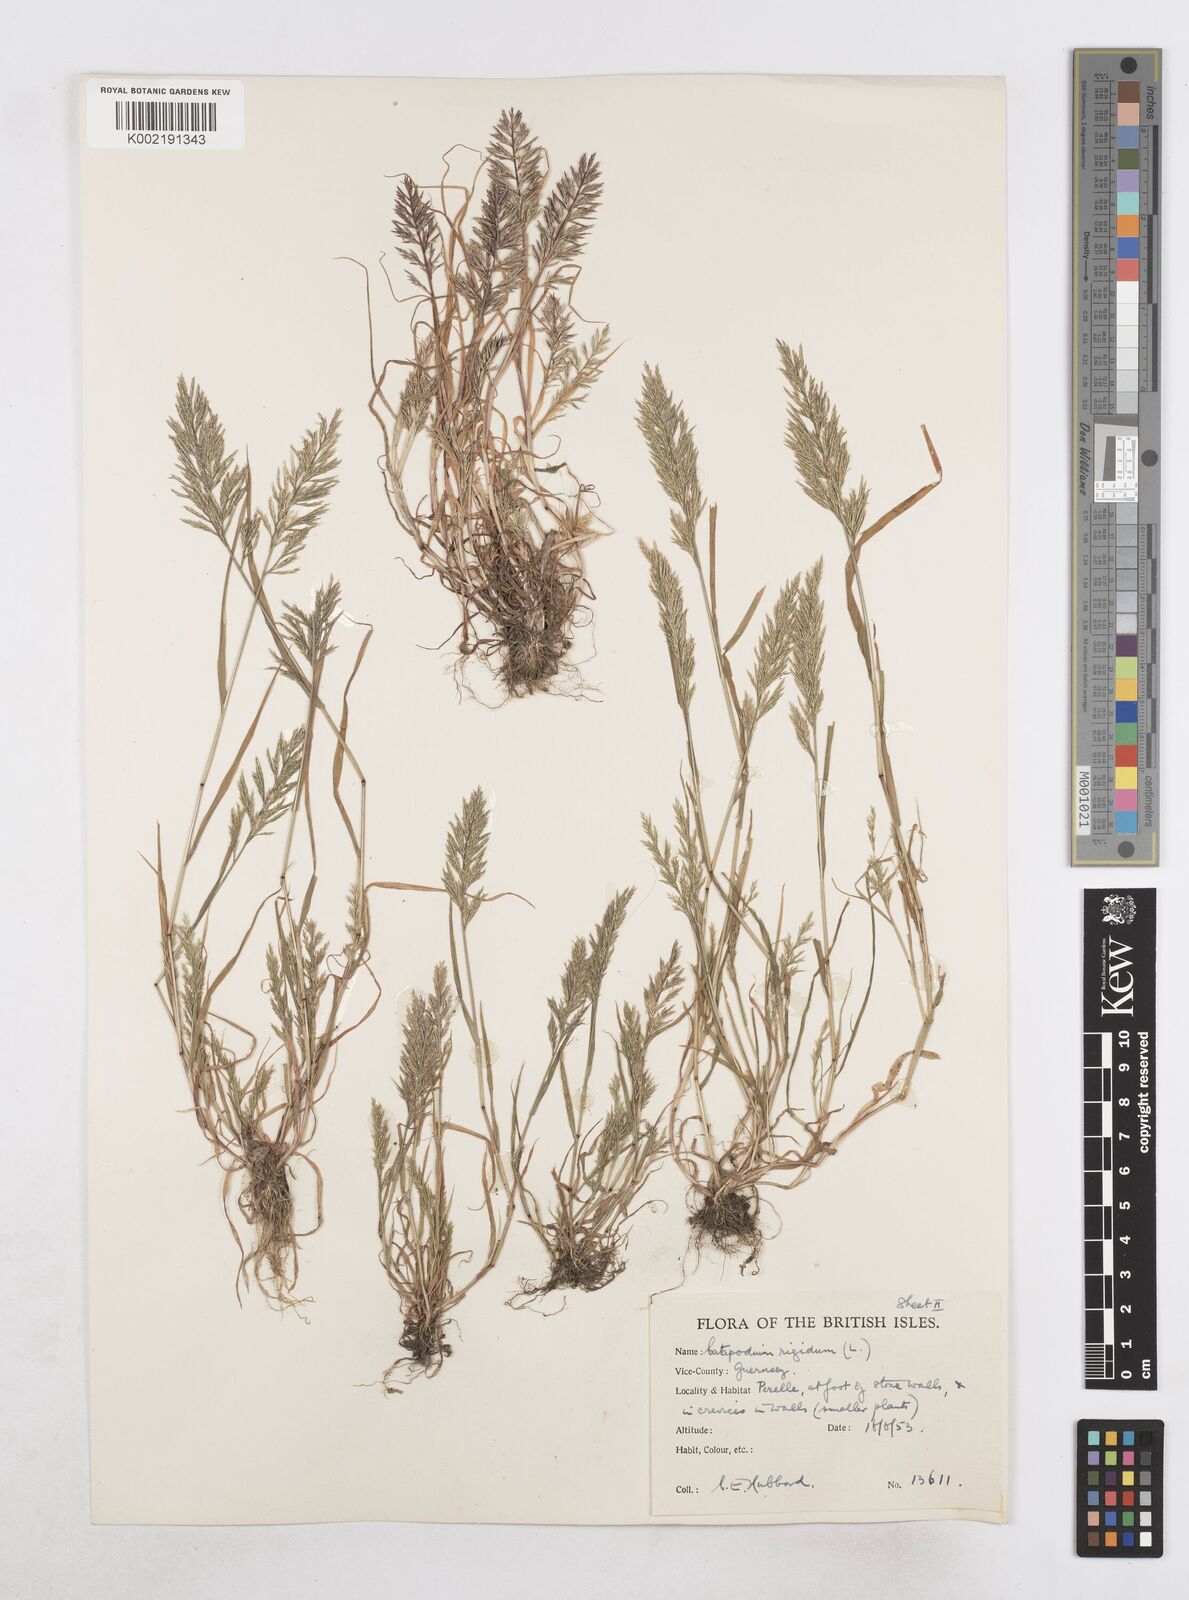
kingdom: Plantae
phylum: Tracheophyta
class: Liliopsida
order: Poales
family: Poaceae
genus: Catapodium
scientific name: Catapodium rigidum
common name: Fern-grass
